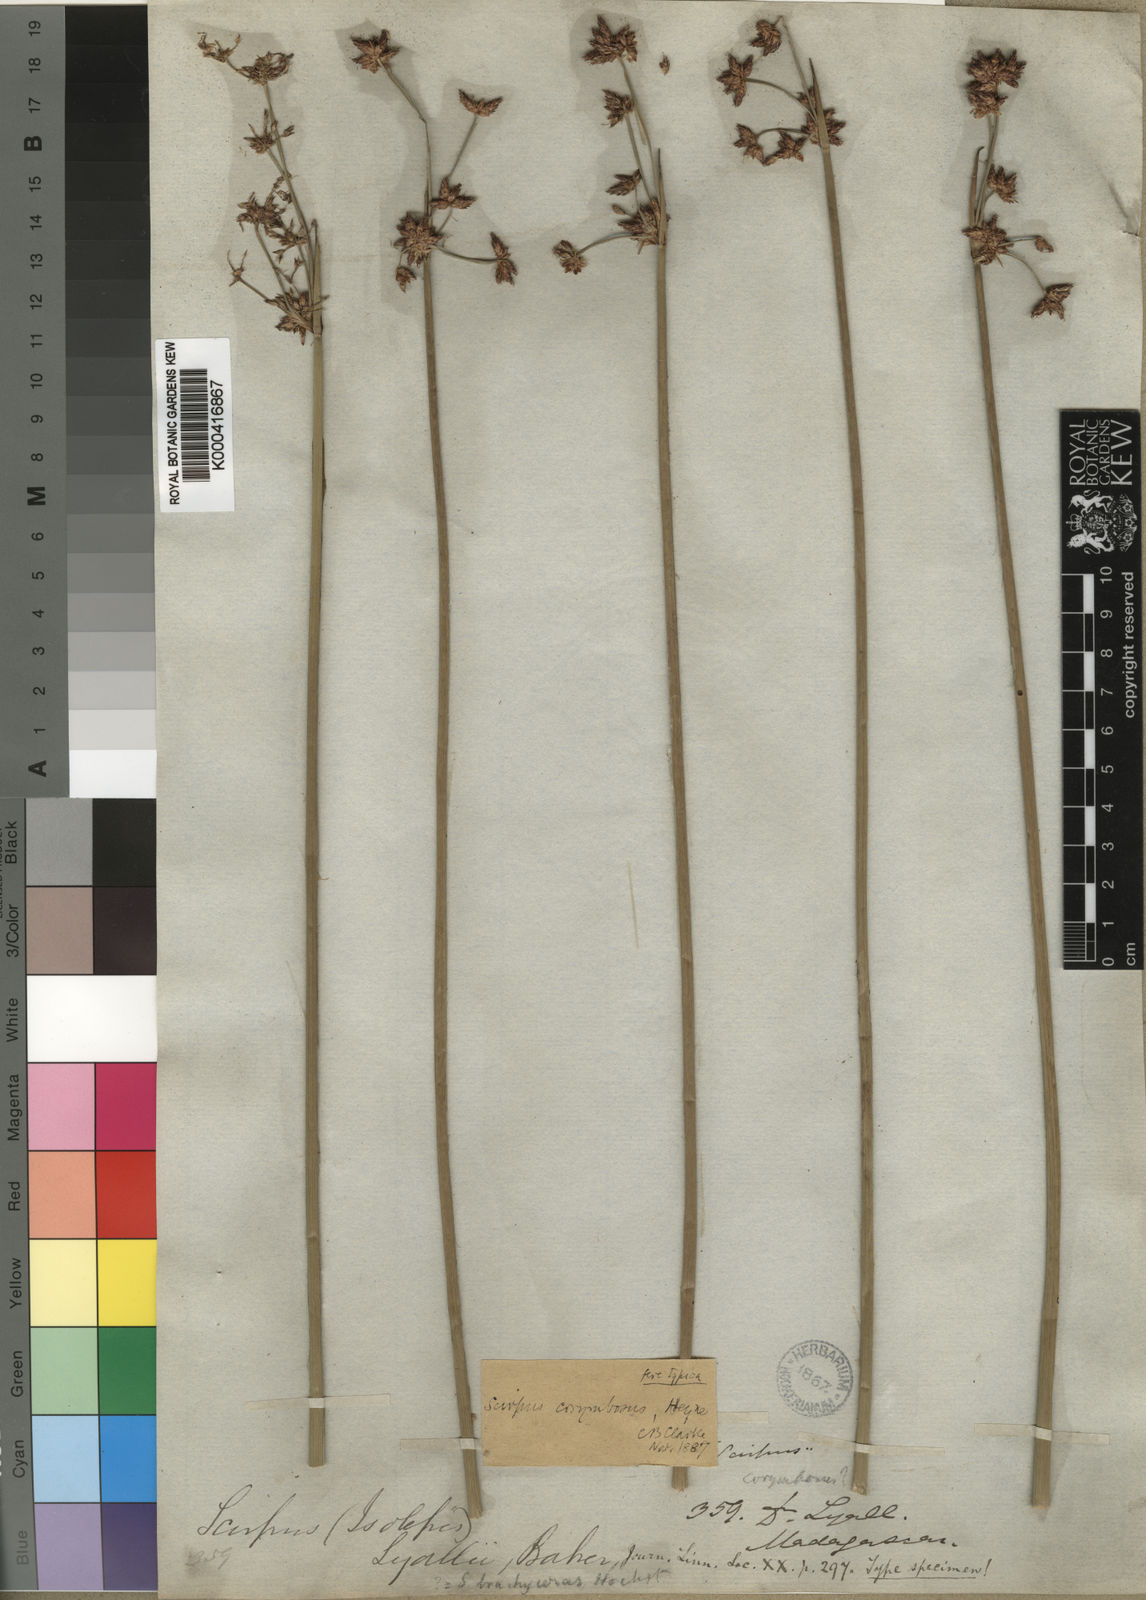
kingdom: Plantae
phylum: Tracheophyta
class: Liliopsida
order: Poales
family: Cyperaceae
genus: Schoenoplectiella
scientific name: Schoenoplectiella corymbosa
